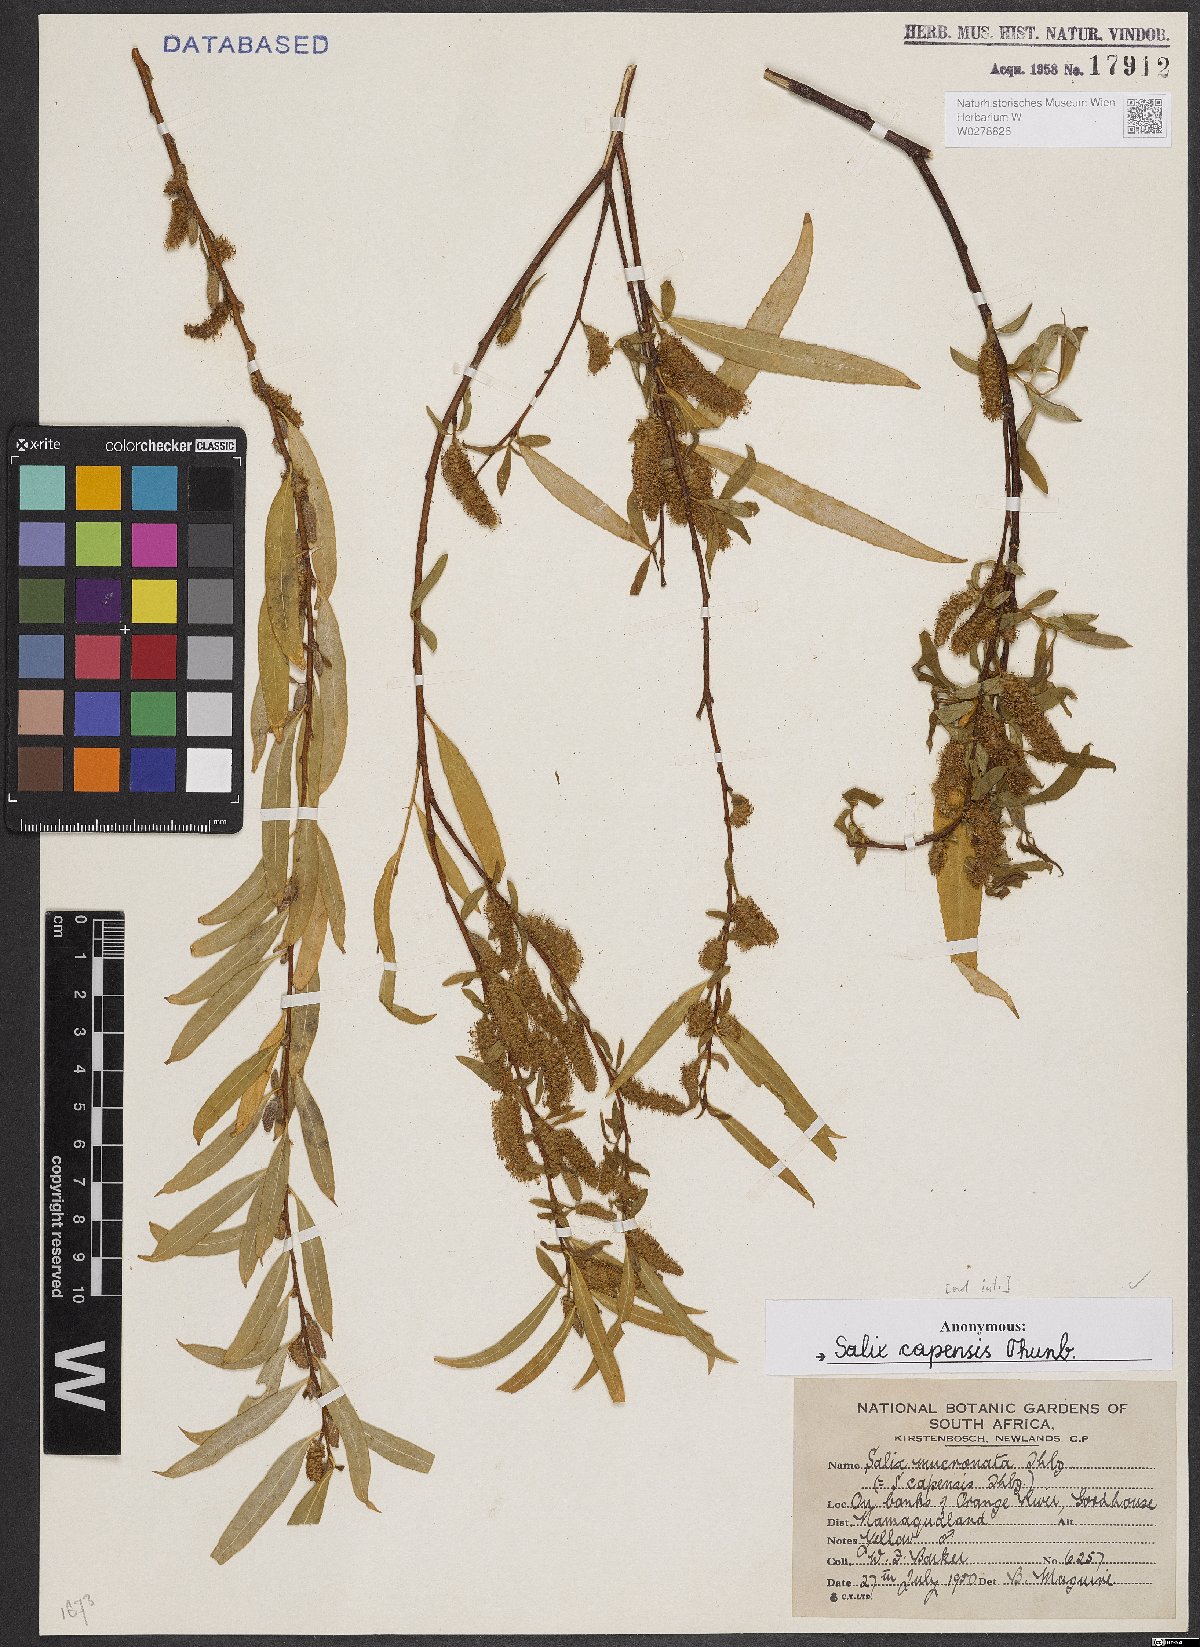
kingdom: Plantae
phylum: Tracheophyta
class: Magnoliopsida
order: Malpighiales
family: Salicaceae
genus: Salix
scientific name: Salix mucronata
